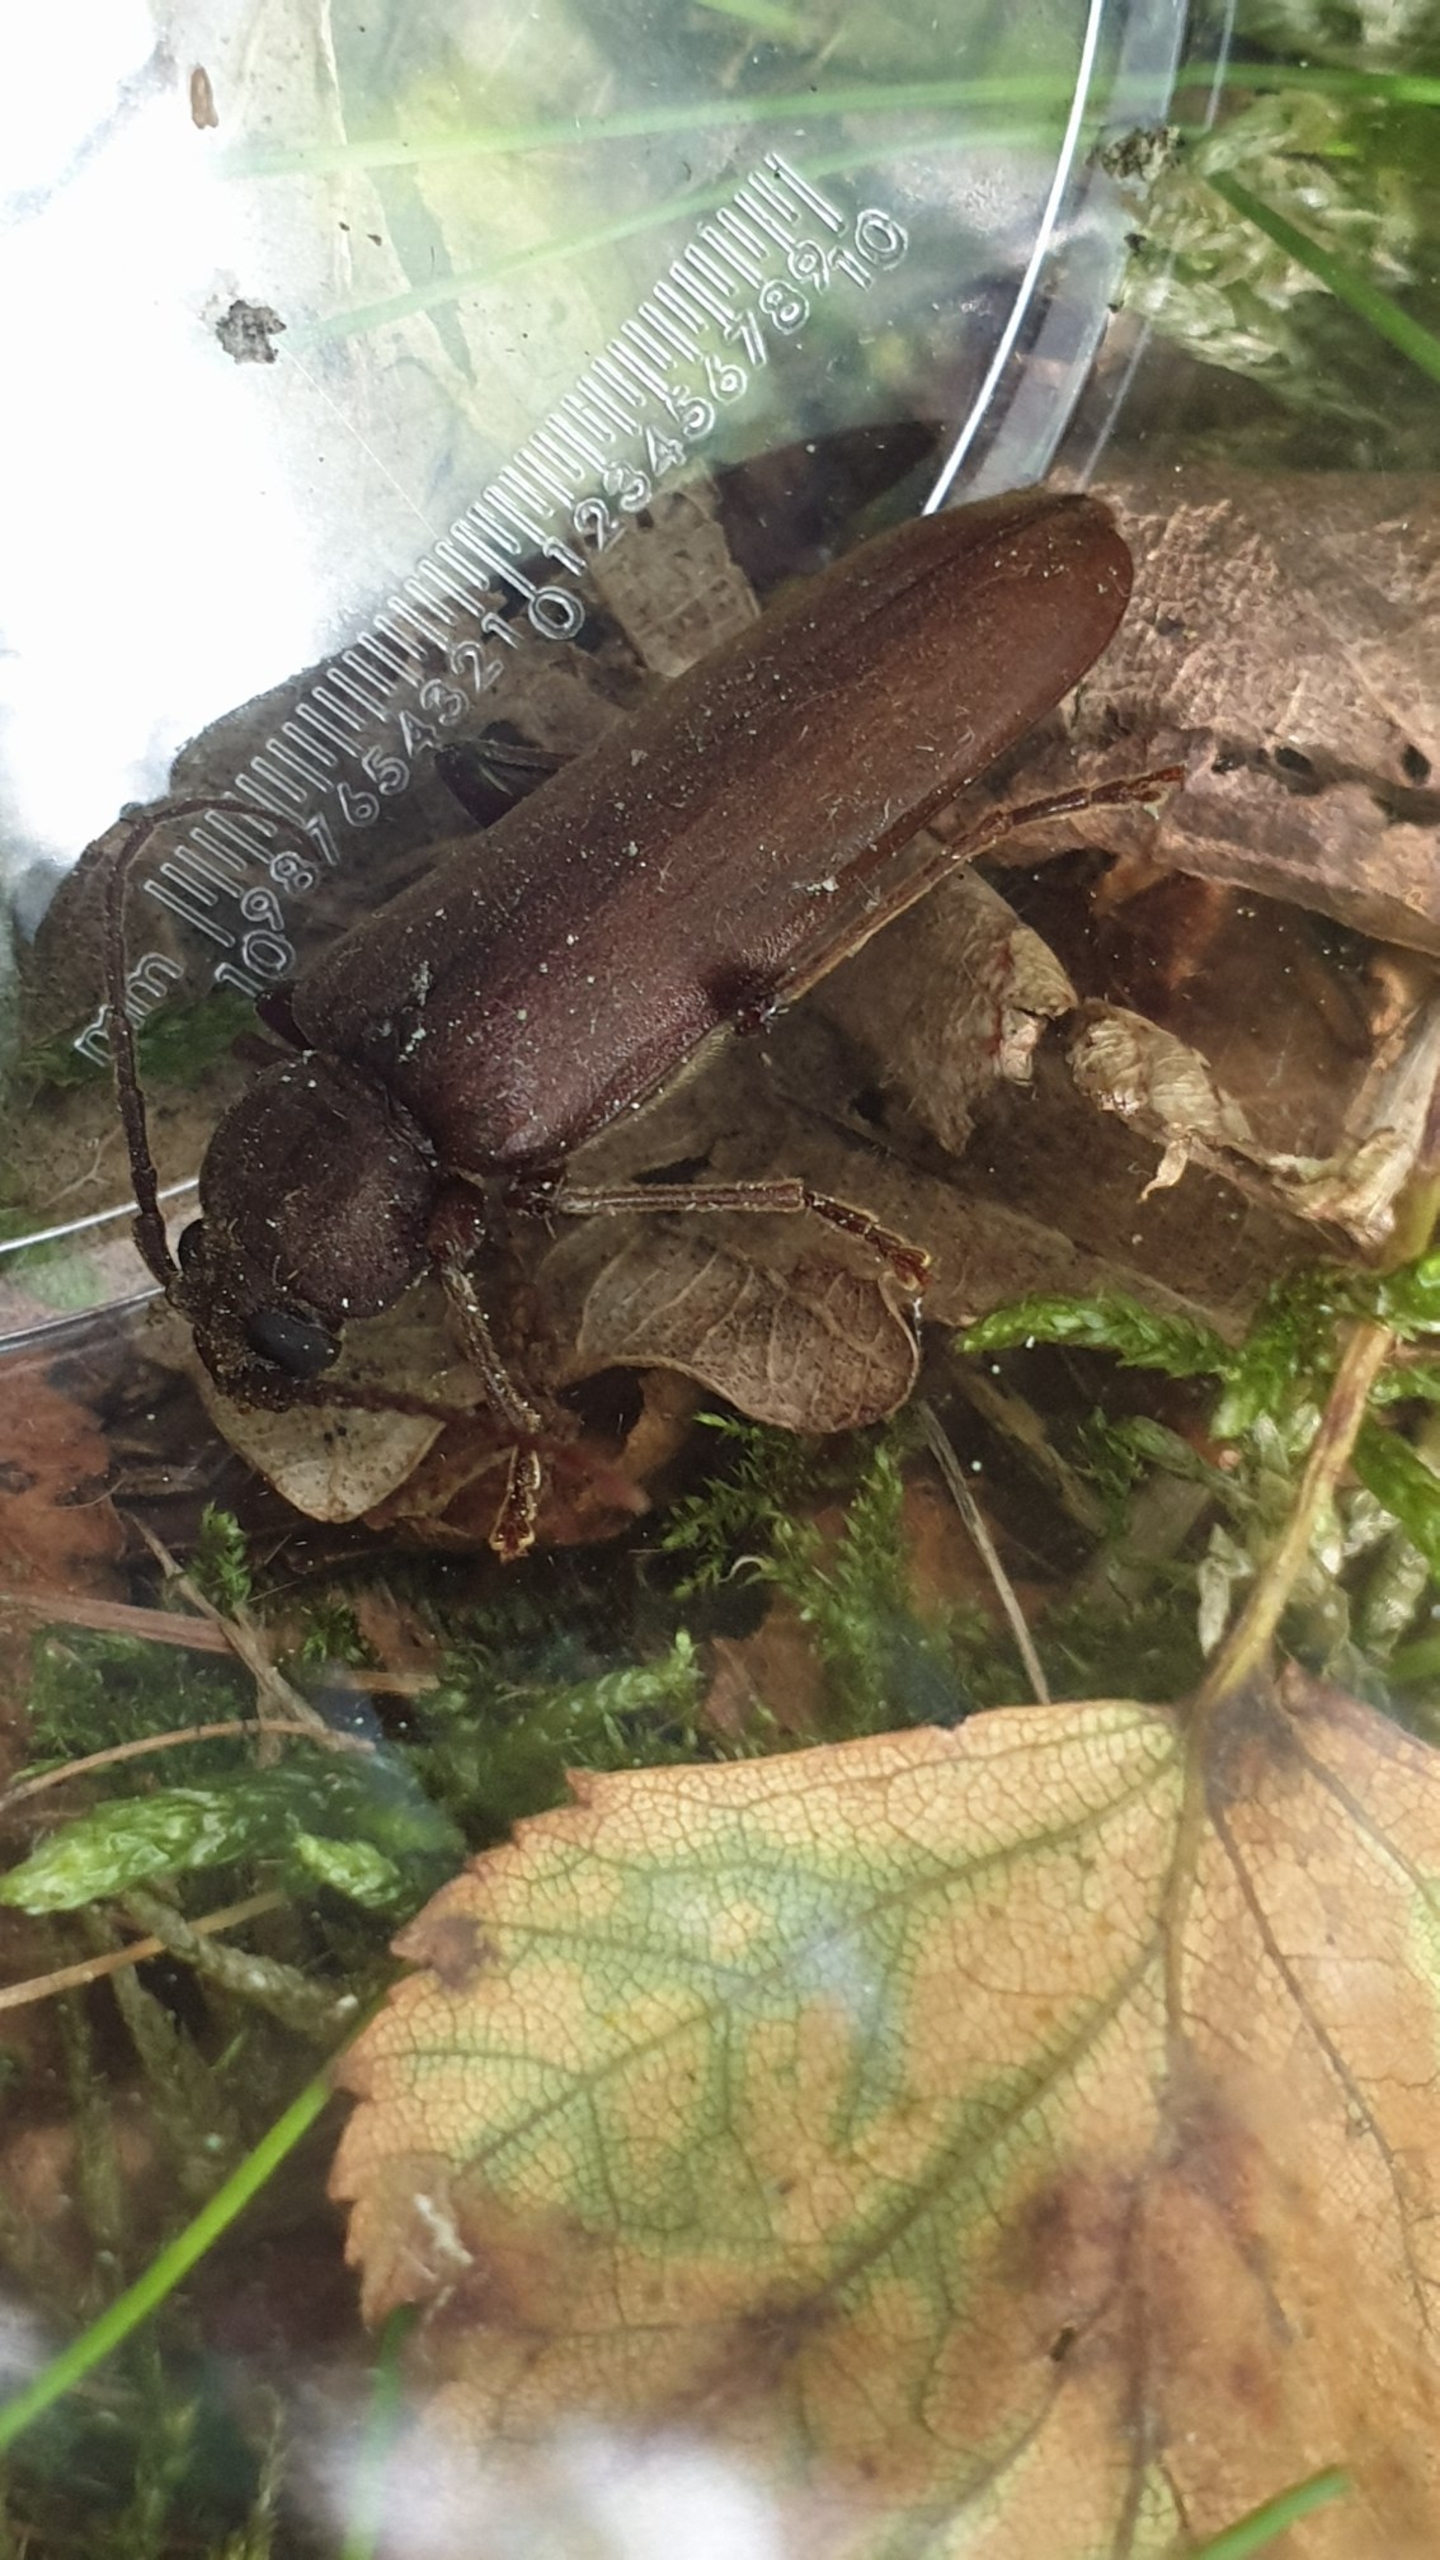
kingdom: Animalia
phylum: Arthropoda
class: Insecta
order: Coleoptera
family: Cerambycidae
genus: Arhopalus
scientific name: Arhopalus rusticus
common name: Brun barkbuk
